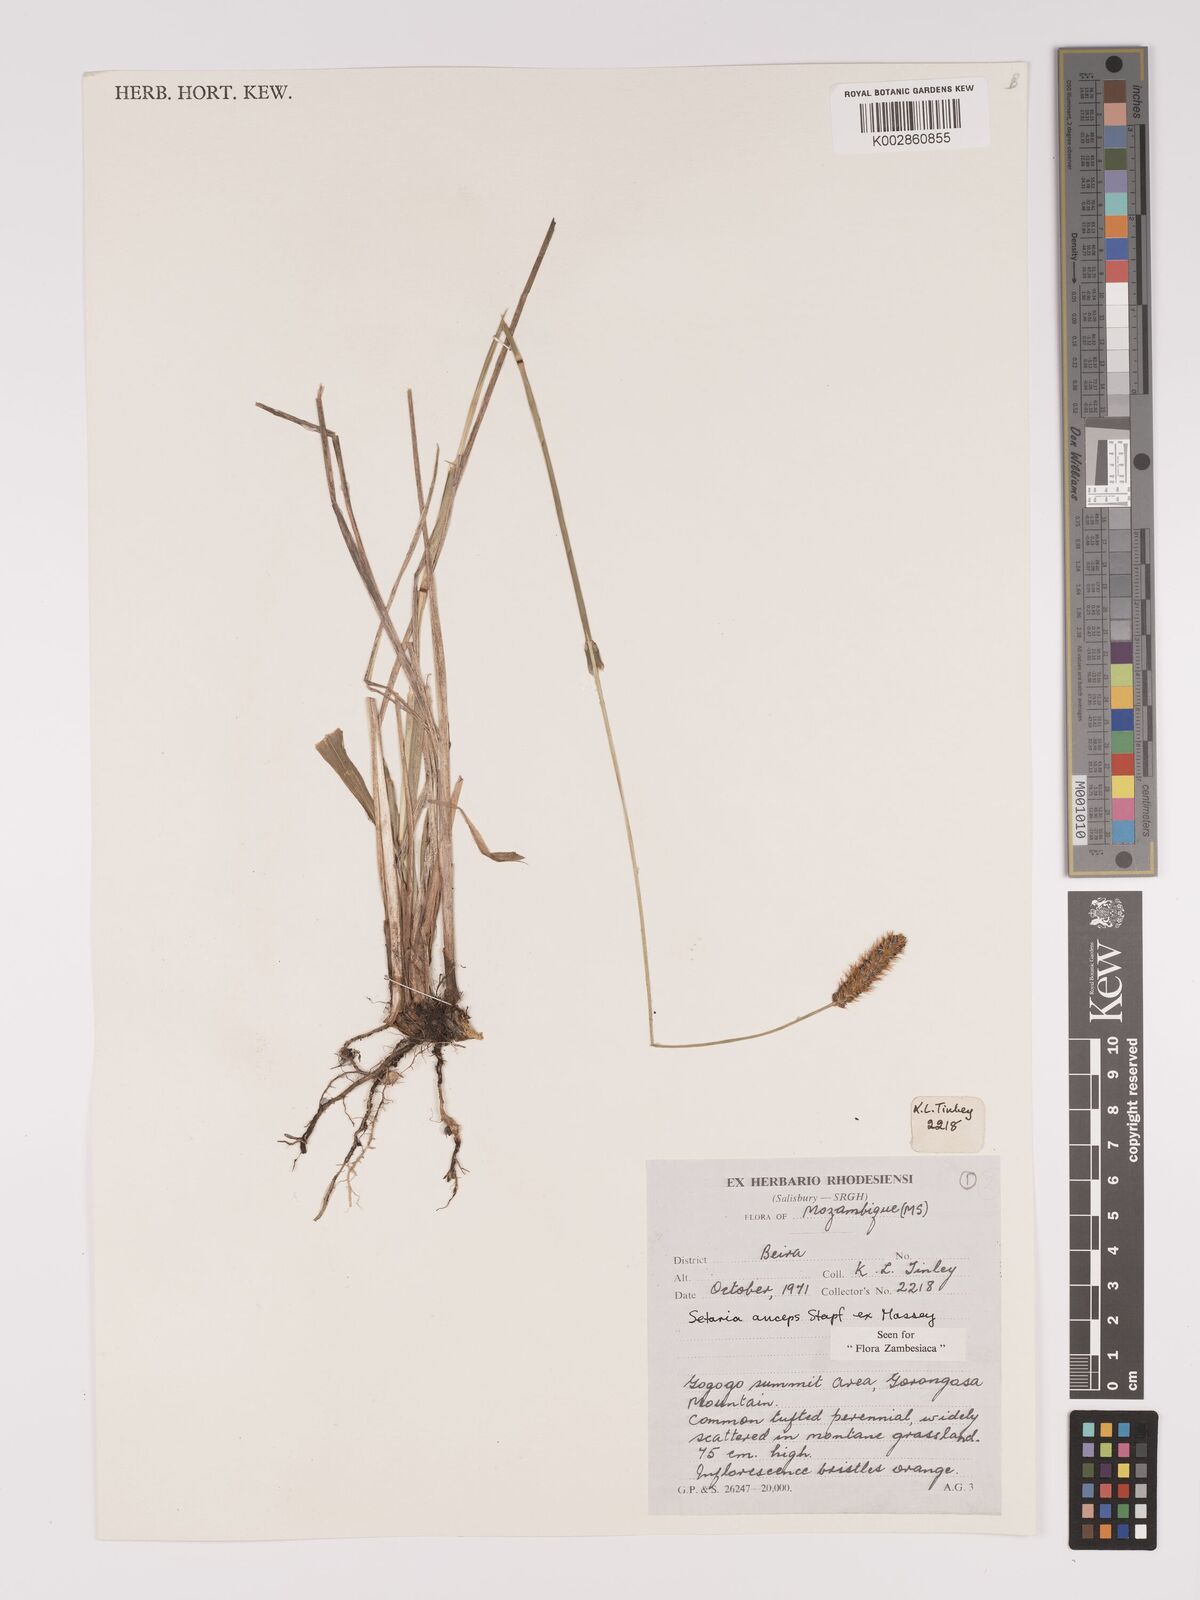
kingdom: Plantae
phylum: Tracheophyta
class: Liliopsida
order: Poales
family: Poaceae
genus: Setaria
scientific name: Setaria sphacelata
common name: African bristlegrass
